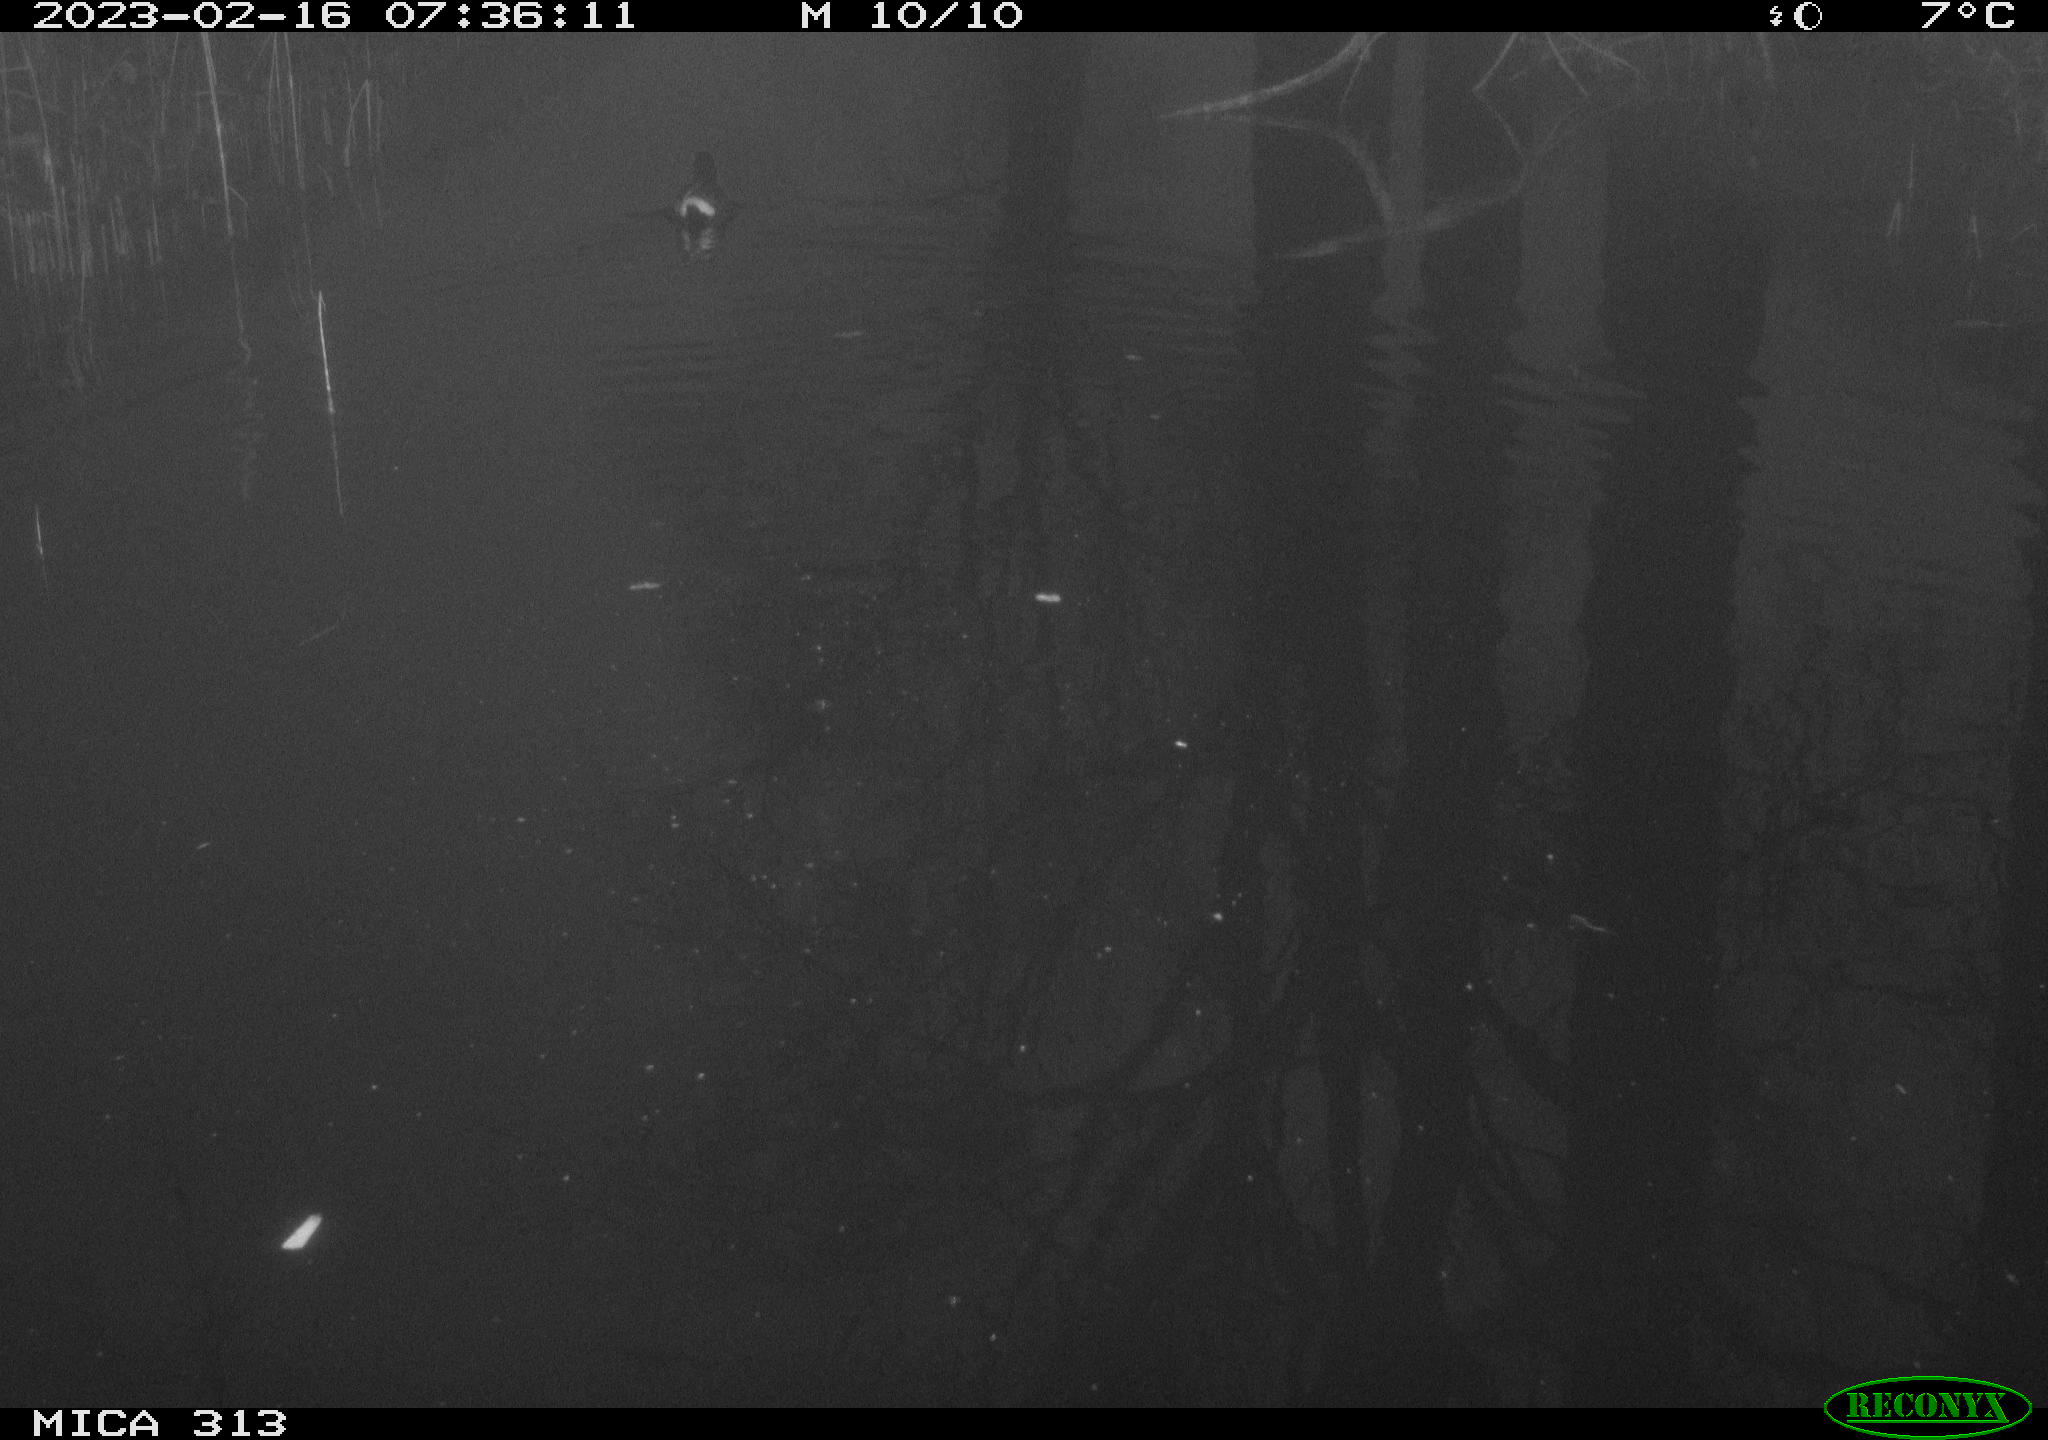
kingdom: Animalia
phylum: Chordata
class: Aves
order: Gruiformes
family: Rallidae
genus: Gallinula
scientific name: Gallinula chloropus
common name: Common moorhen
